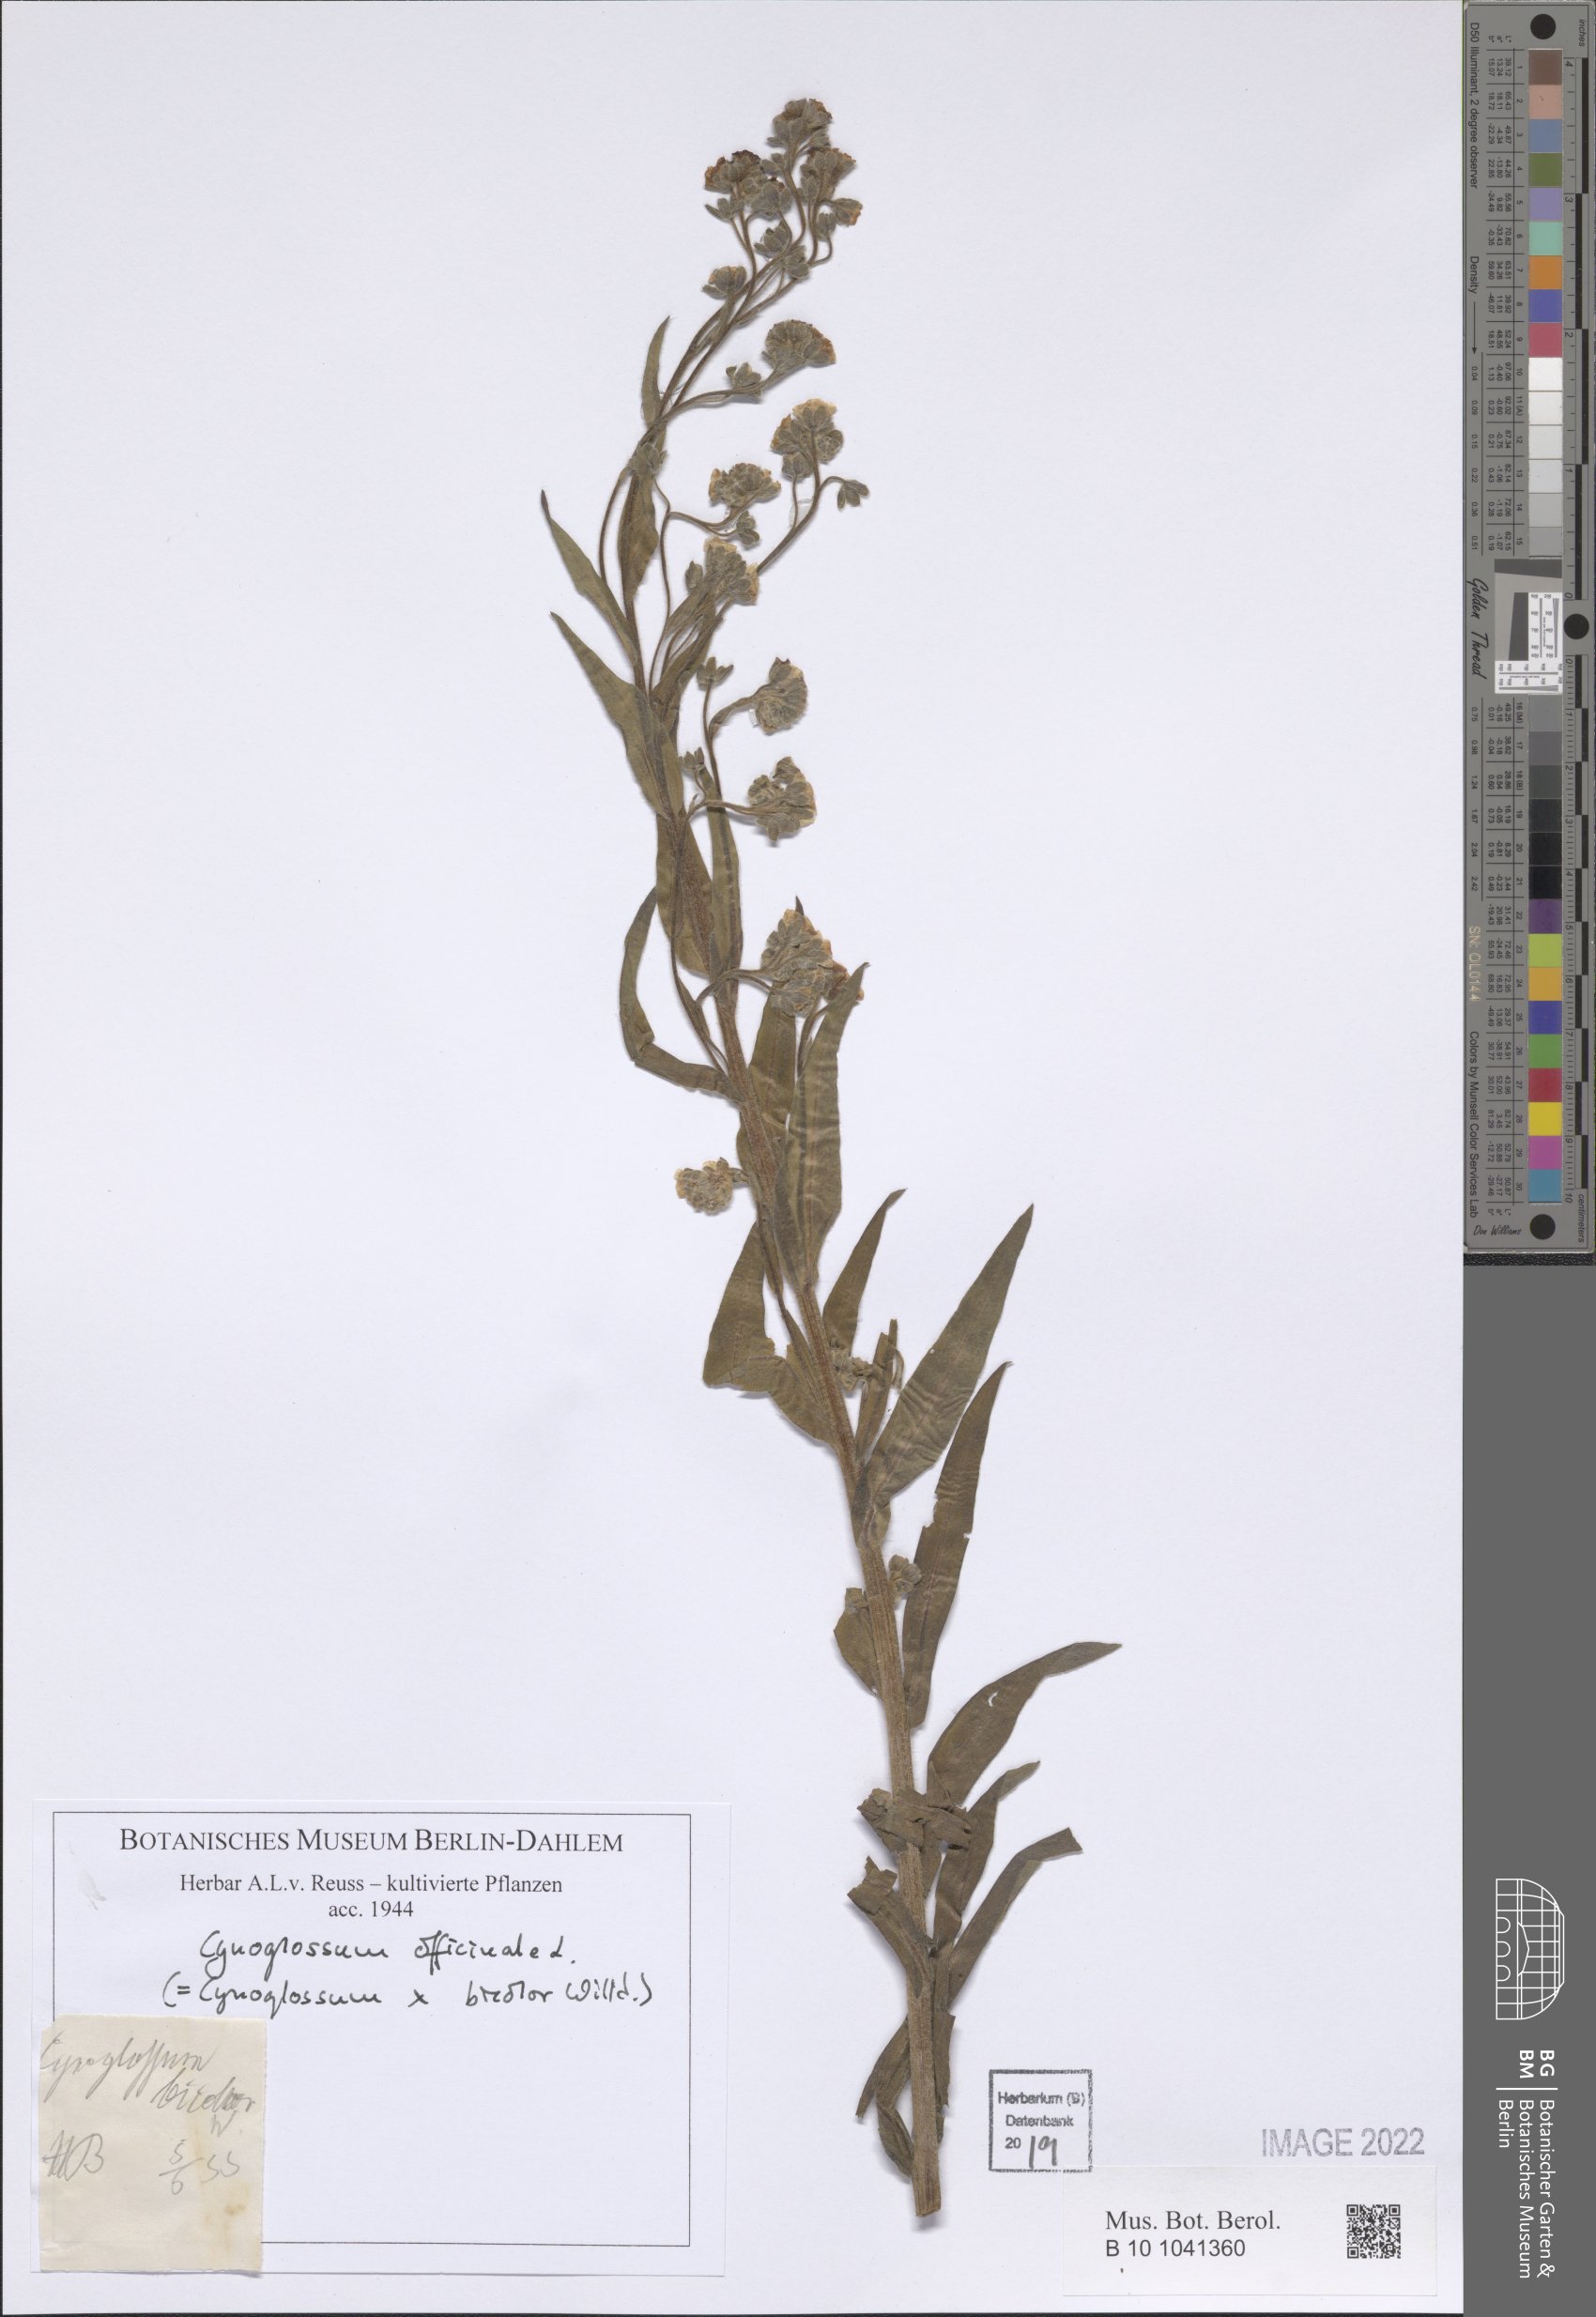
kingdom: Plantae
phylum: Tracheophyta
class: Magnoliopsida
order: Boraginales
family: Boraginaceae
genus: Cynoglossum
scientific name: Cynoglossum officinale
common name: Hound's-tongue
